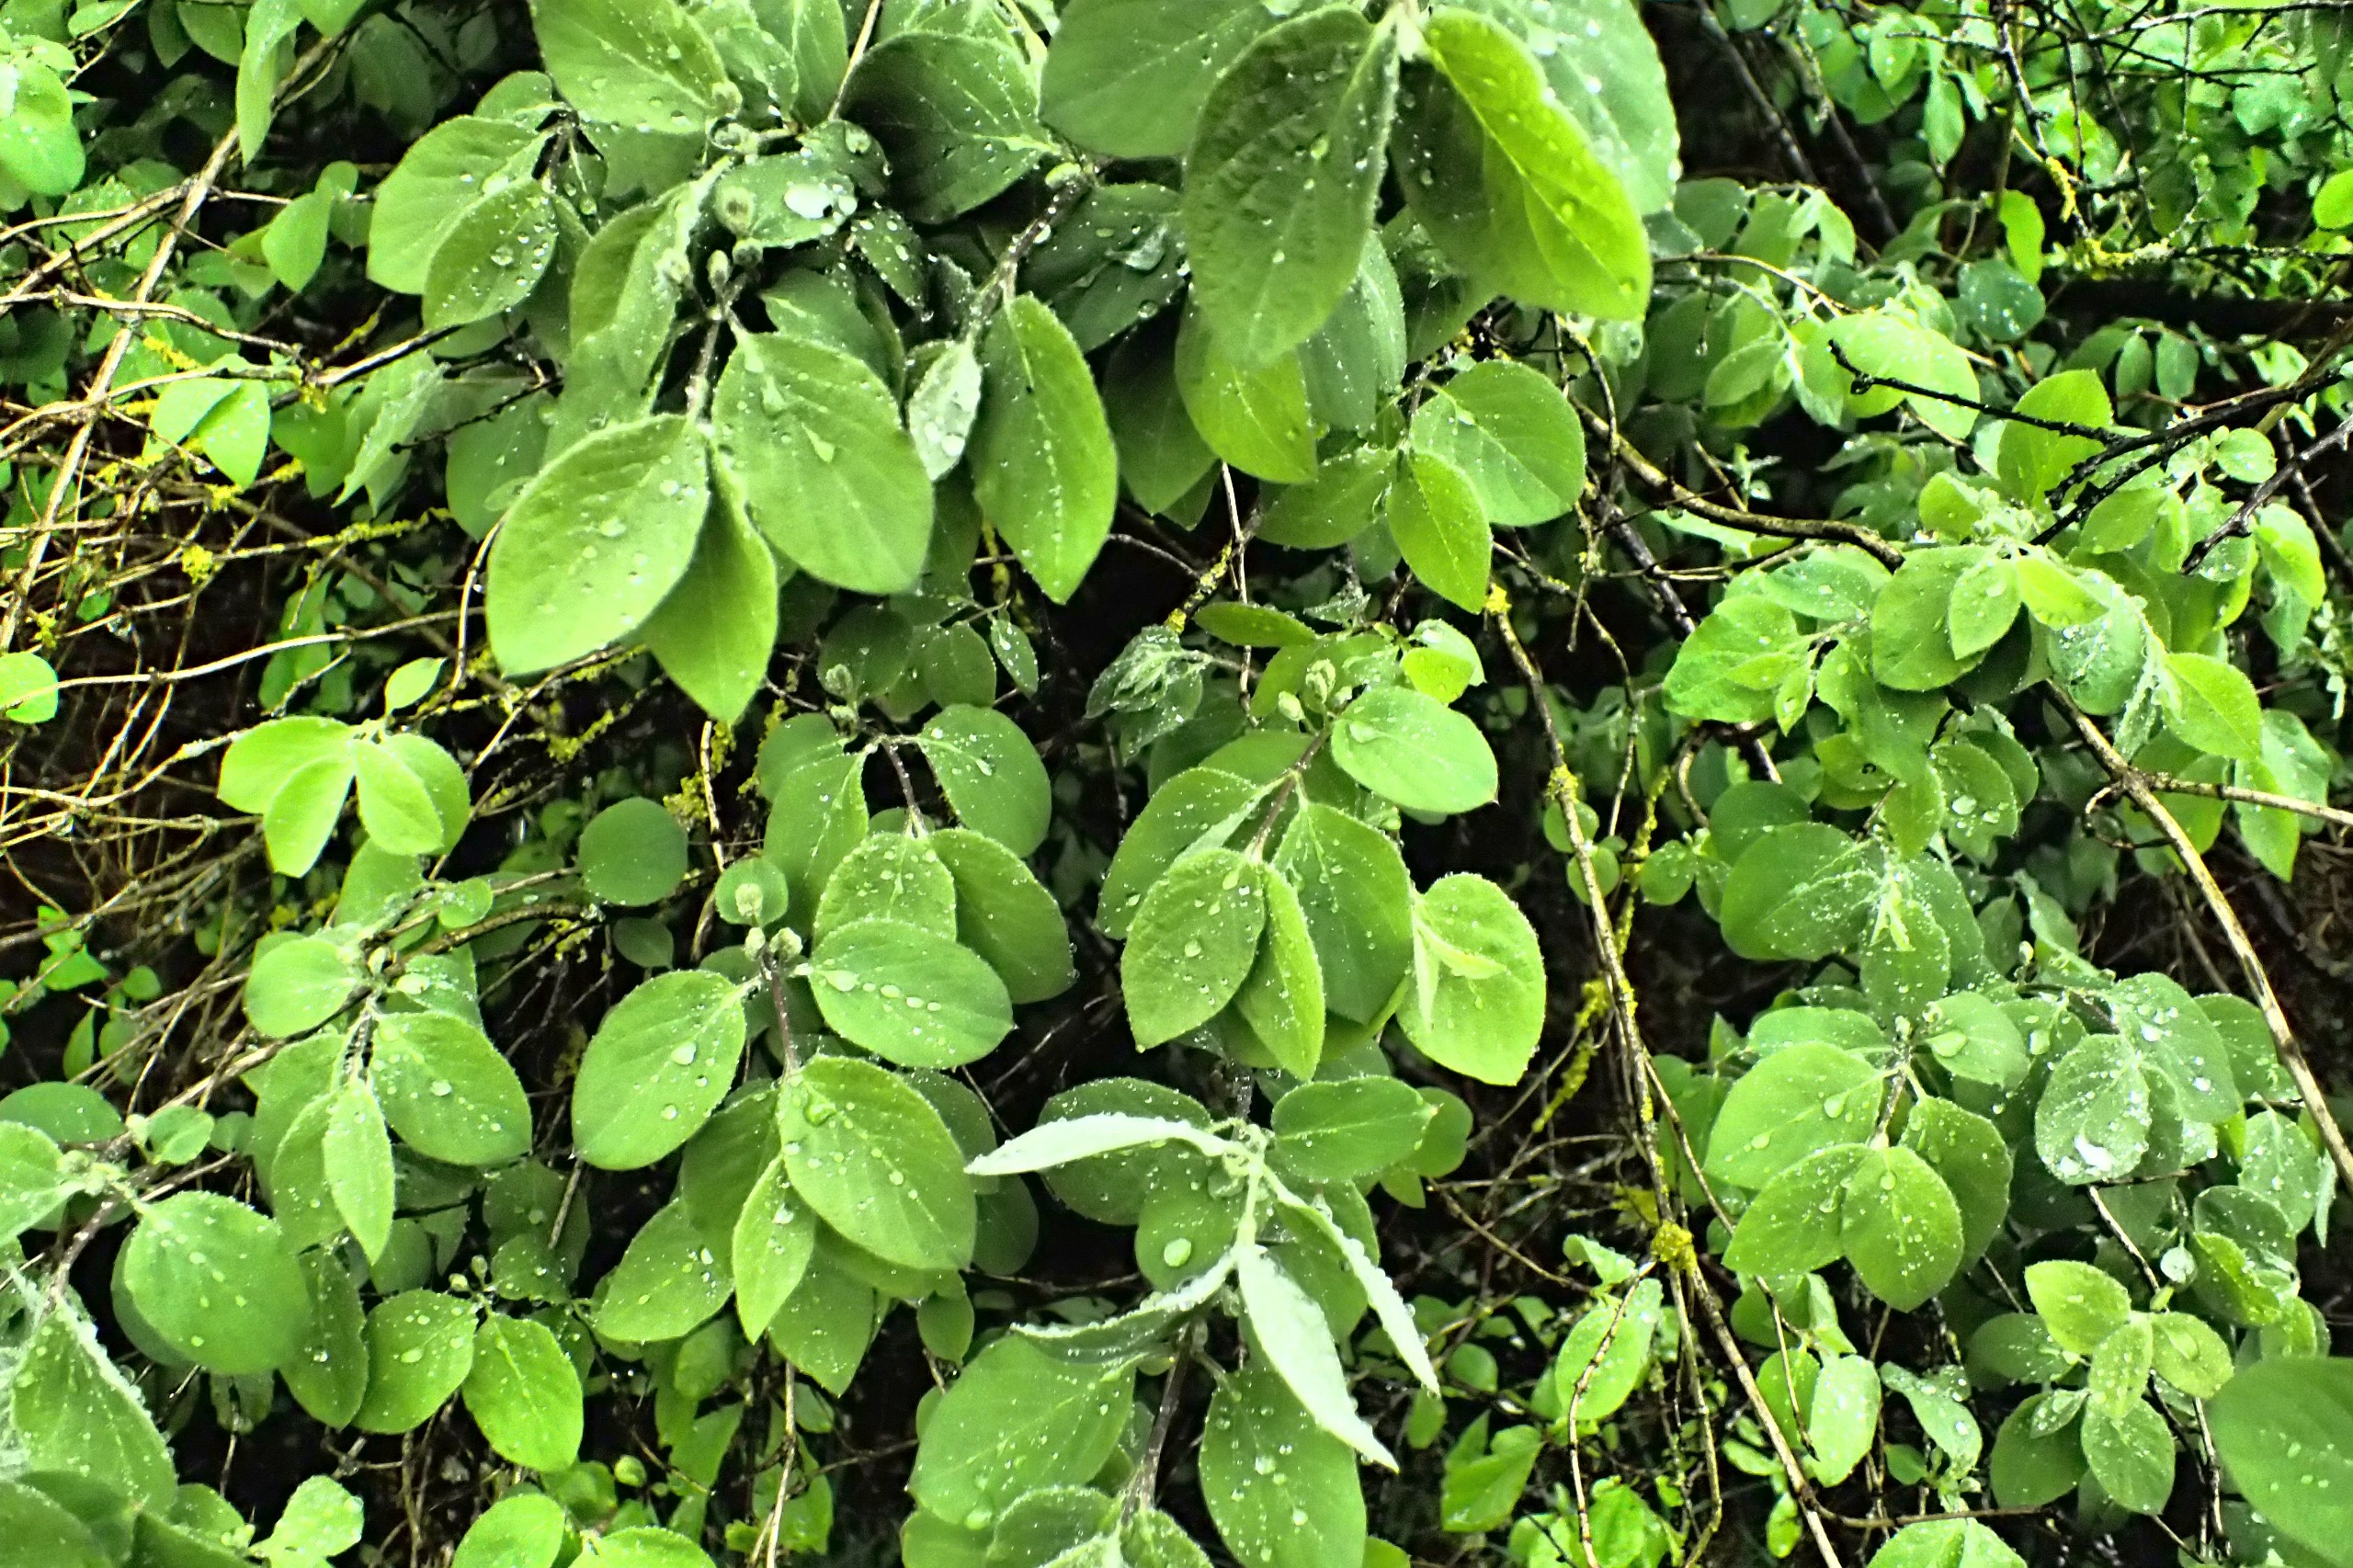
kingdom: Plantae
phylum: Tracheophyta
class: Magnoliopsida
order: Dipsacales
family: Caprifoliaceae
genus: Lonicera
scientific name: Lonicera xylosteum
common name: Dunet gedeblad
